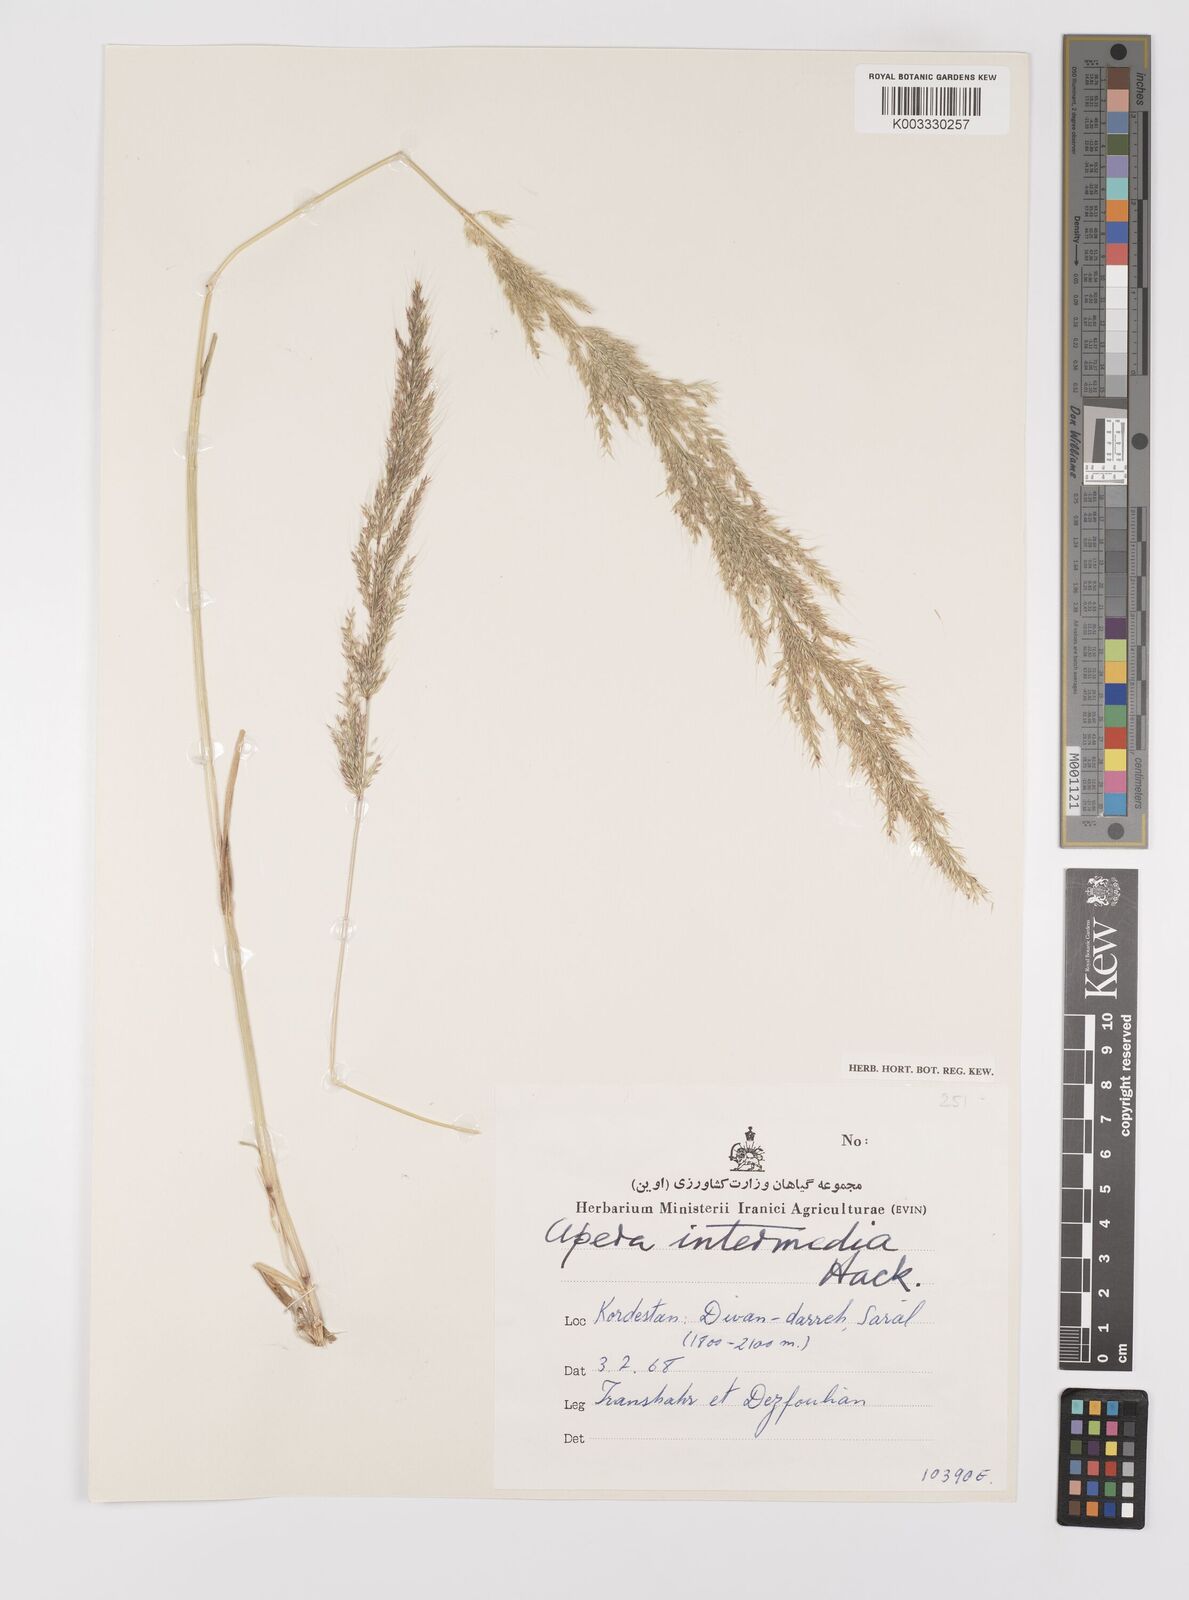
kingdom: Plantae
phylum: Tracheophyta
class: Liliopsida
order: Poales
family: Poaceae
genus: Apera
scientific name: Apera intermedia
